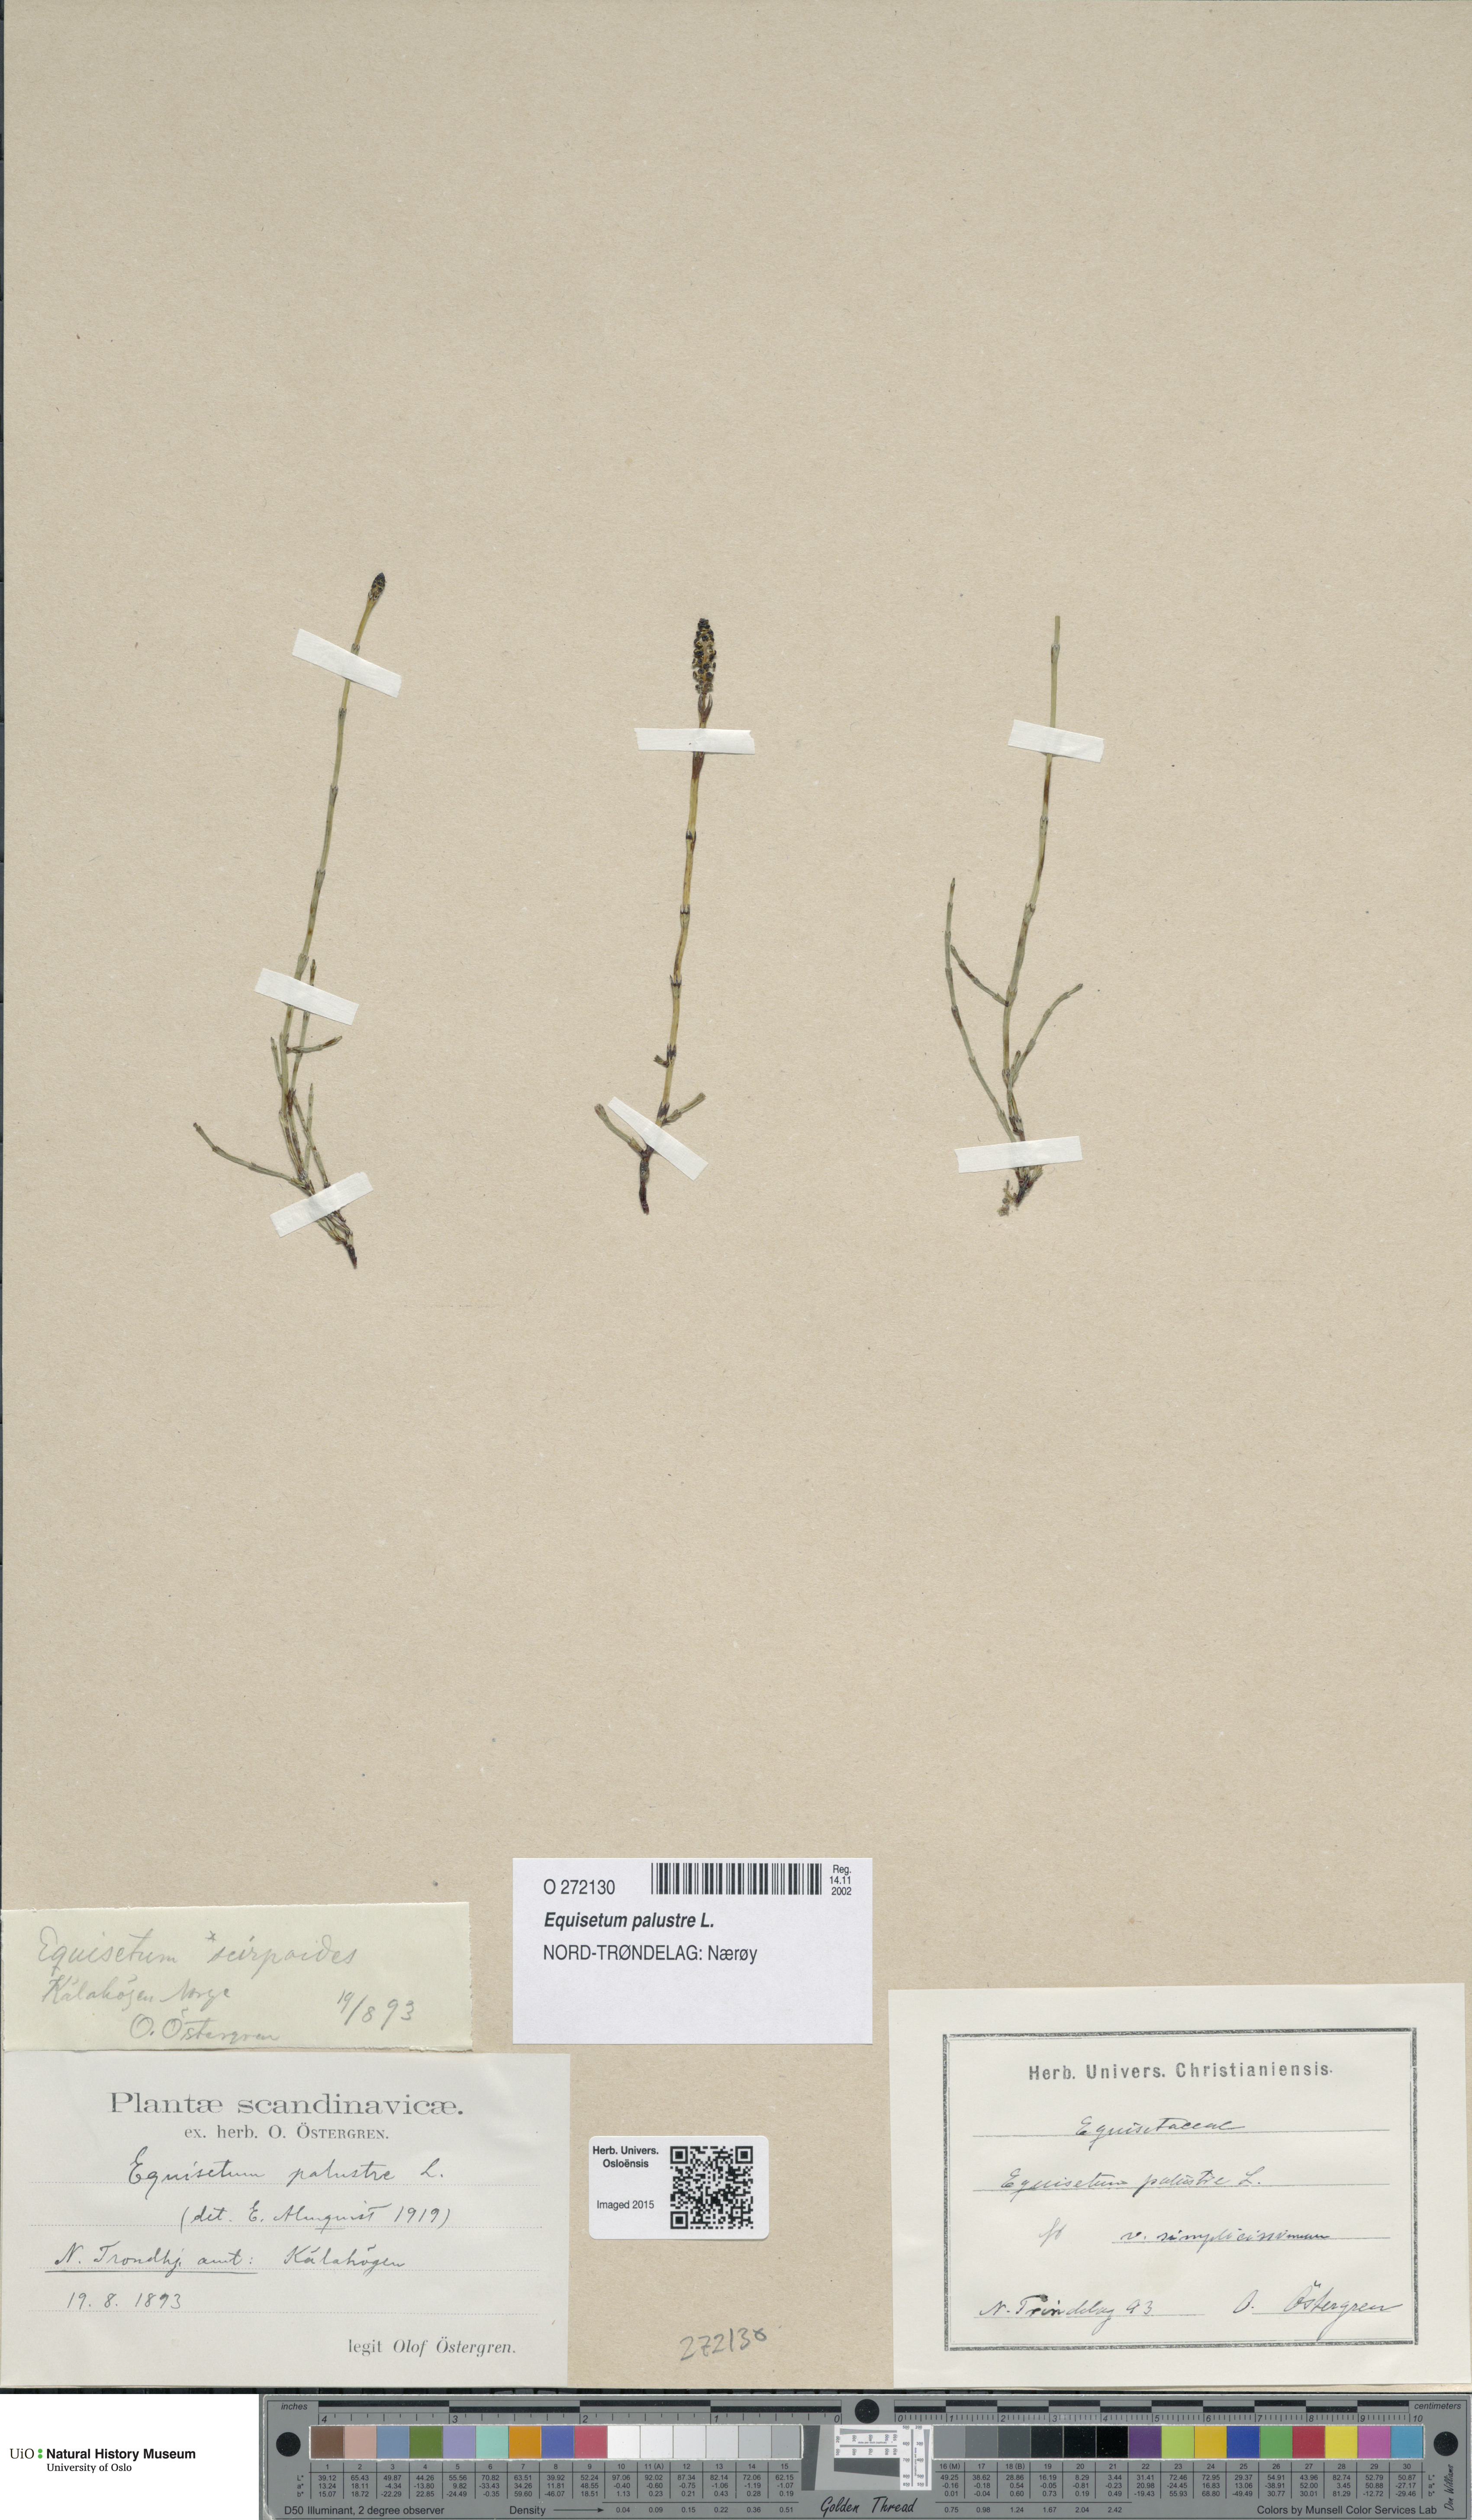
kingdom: Plantae
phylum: Tracheophyta
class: Polypodiopsida
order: Equisetales
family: Equisetaceae
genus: Equisetum
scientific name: Equisetum palustre
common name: Marsh horsetail
